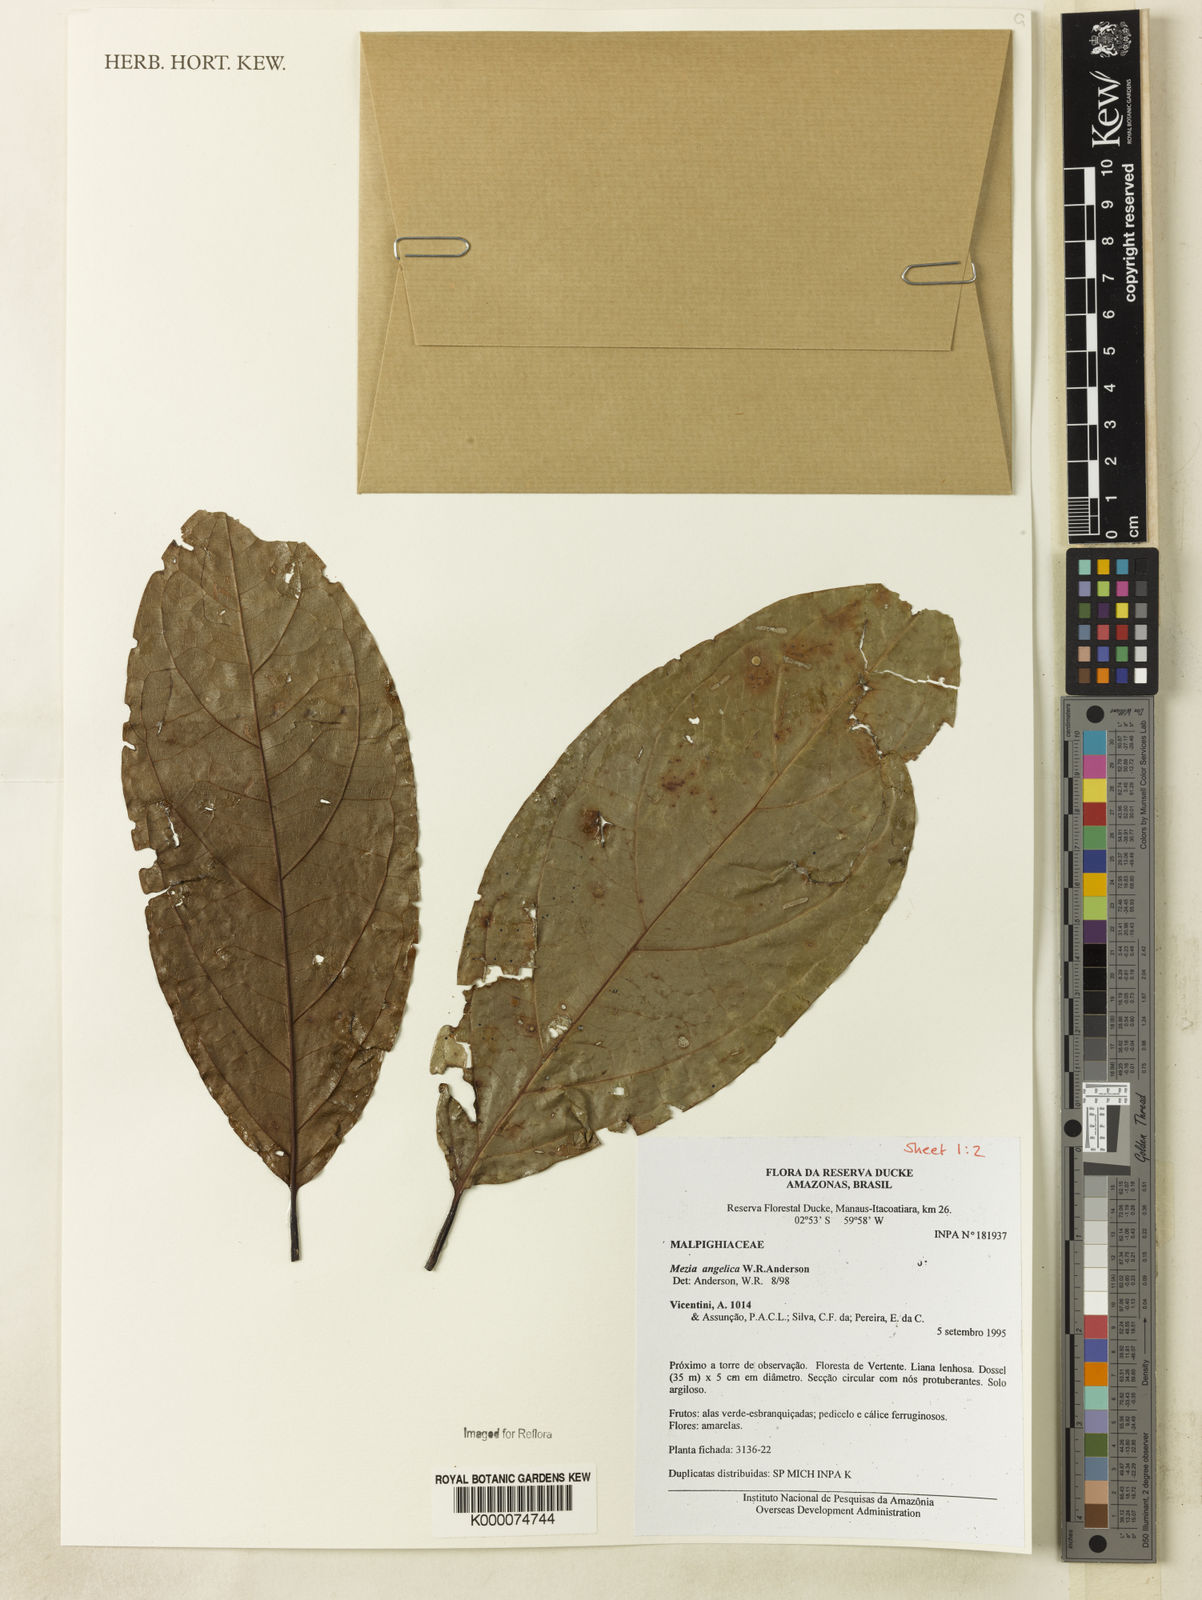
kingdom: Plantae
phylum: Tracheophyta
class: Magnoliopsida
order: Malpighiales
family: Malpighiaceae
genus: Mezia
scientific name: Mezia angelica
